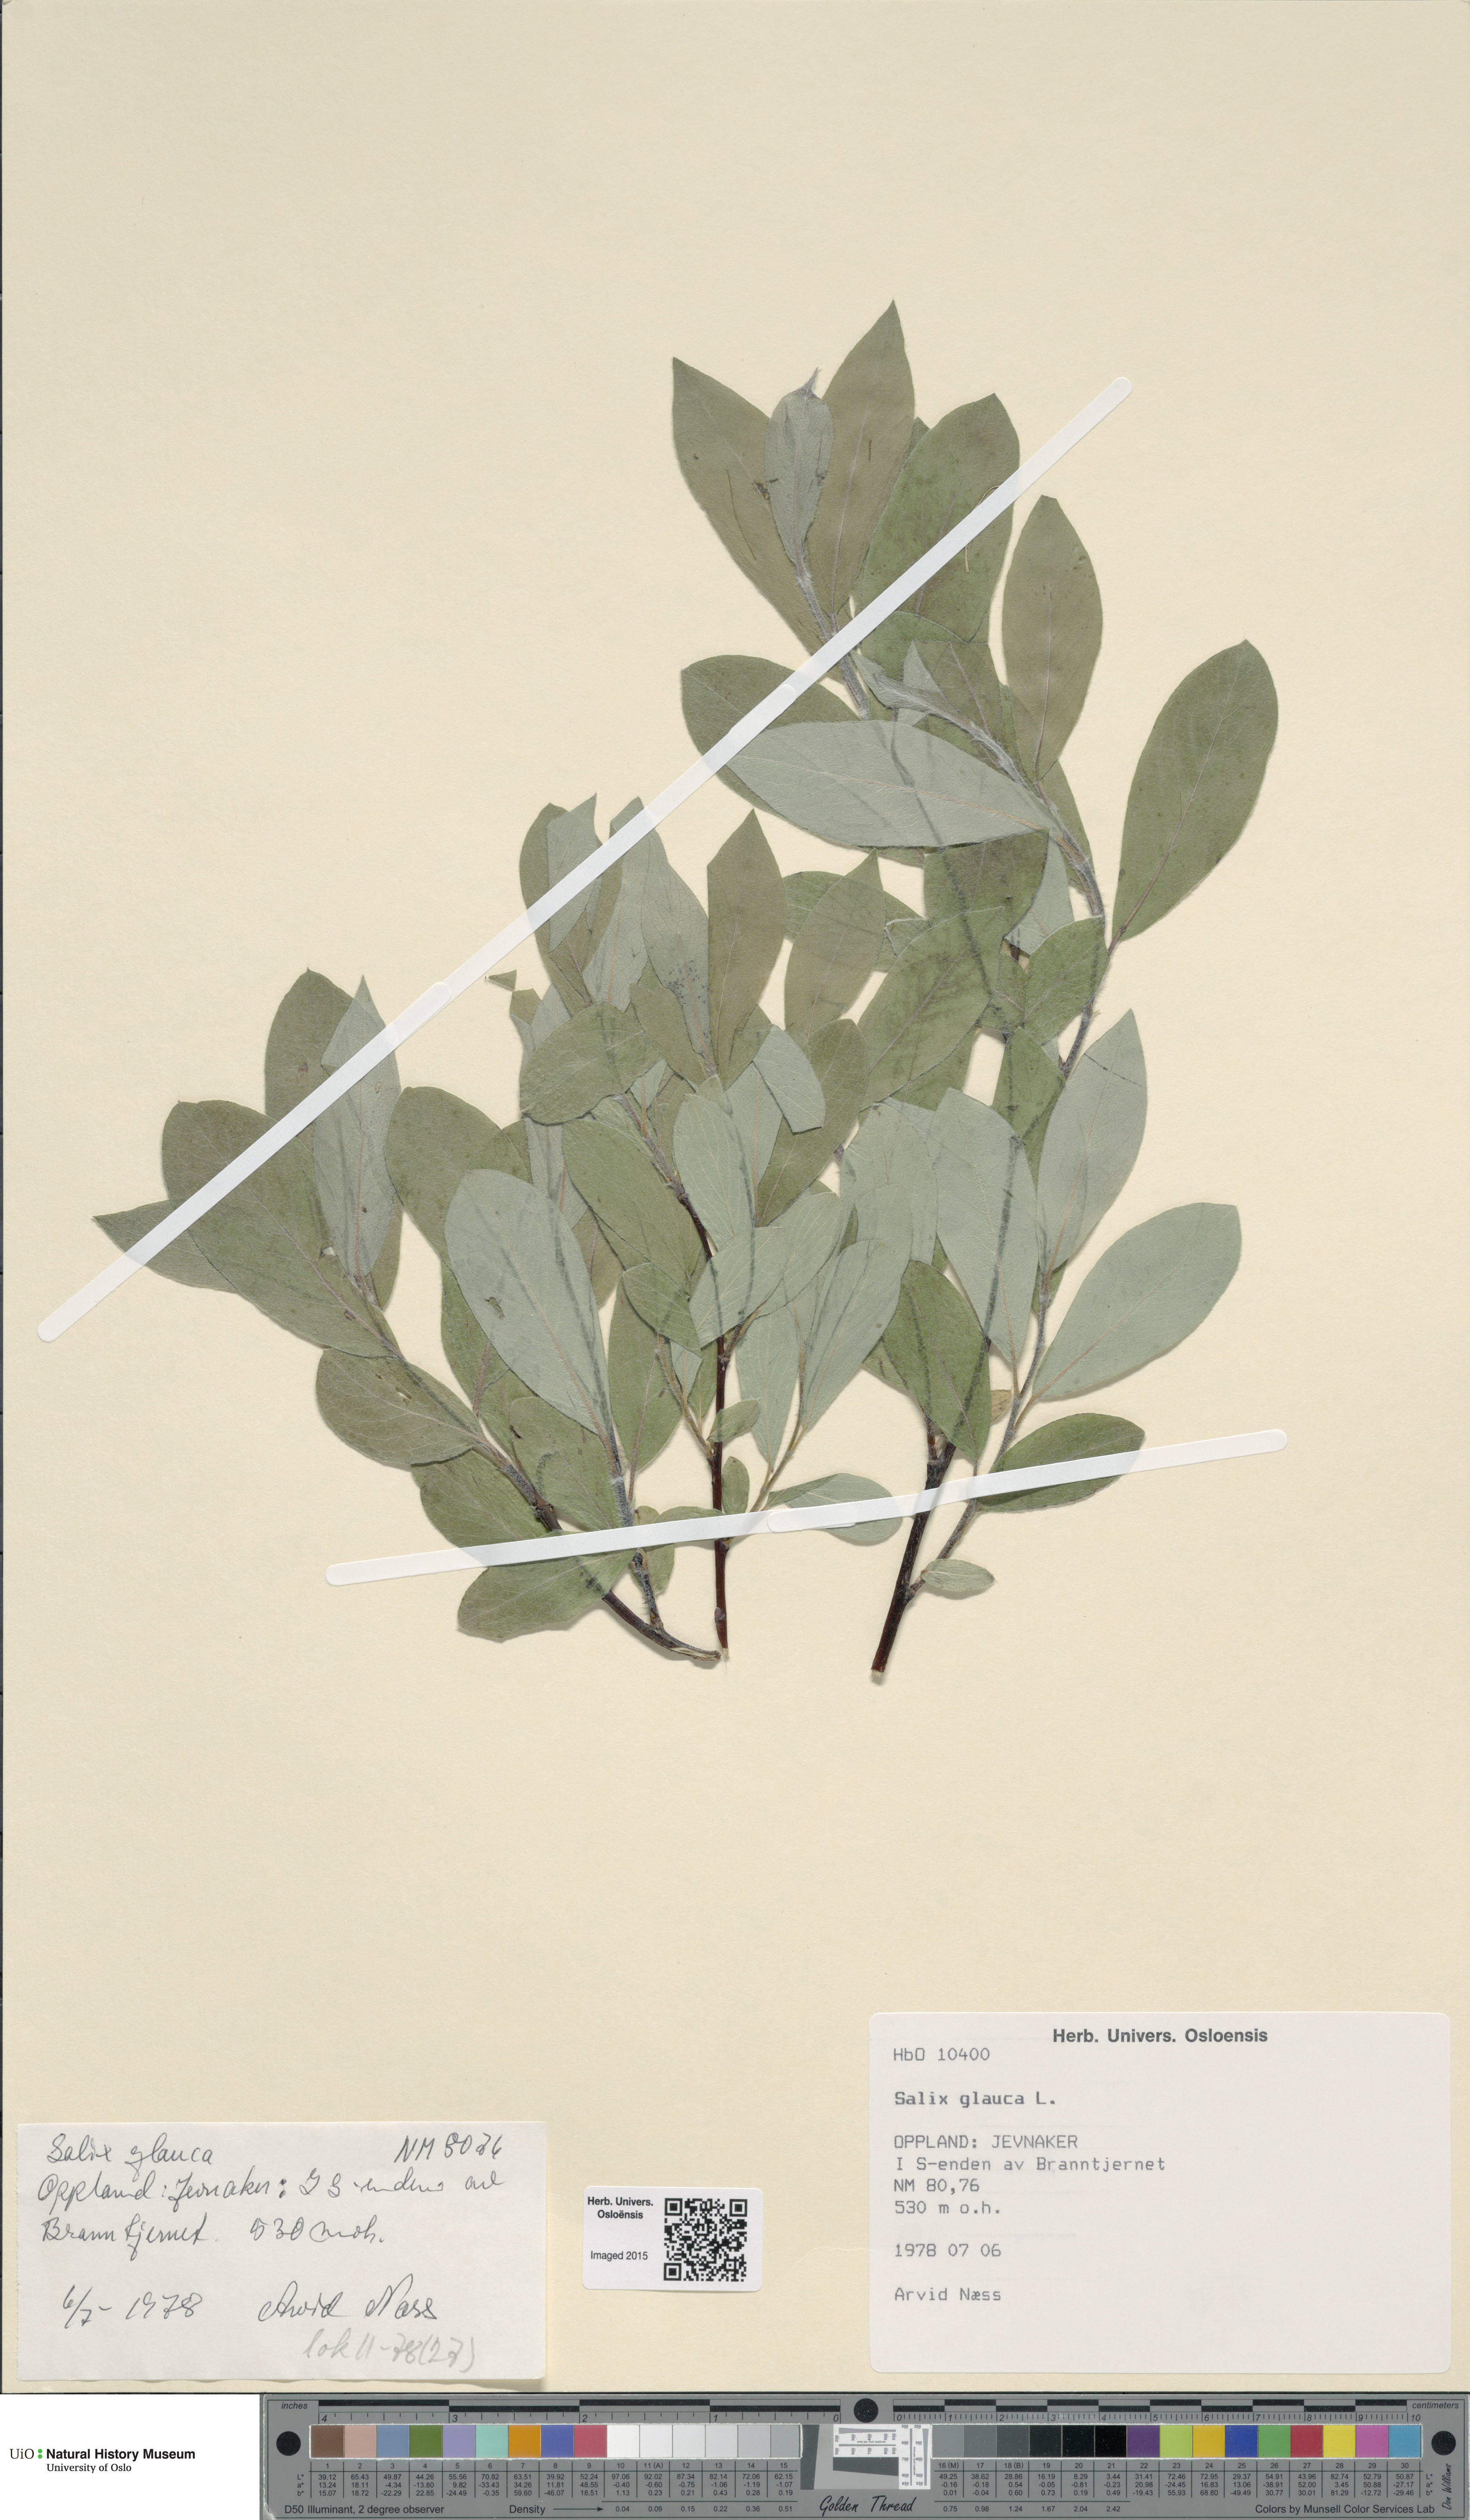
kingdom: Plantae
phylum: Tracheophyta
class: Magnoliopsida
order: Malpighiales
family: Salicaceae
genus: Salix
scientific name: Salix glauca
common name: Glaucous willow
